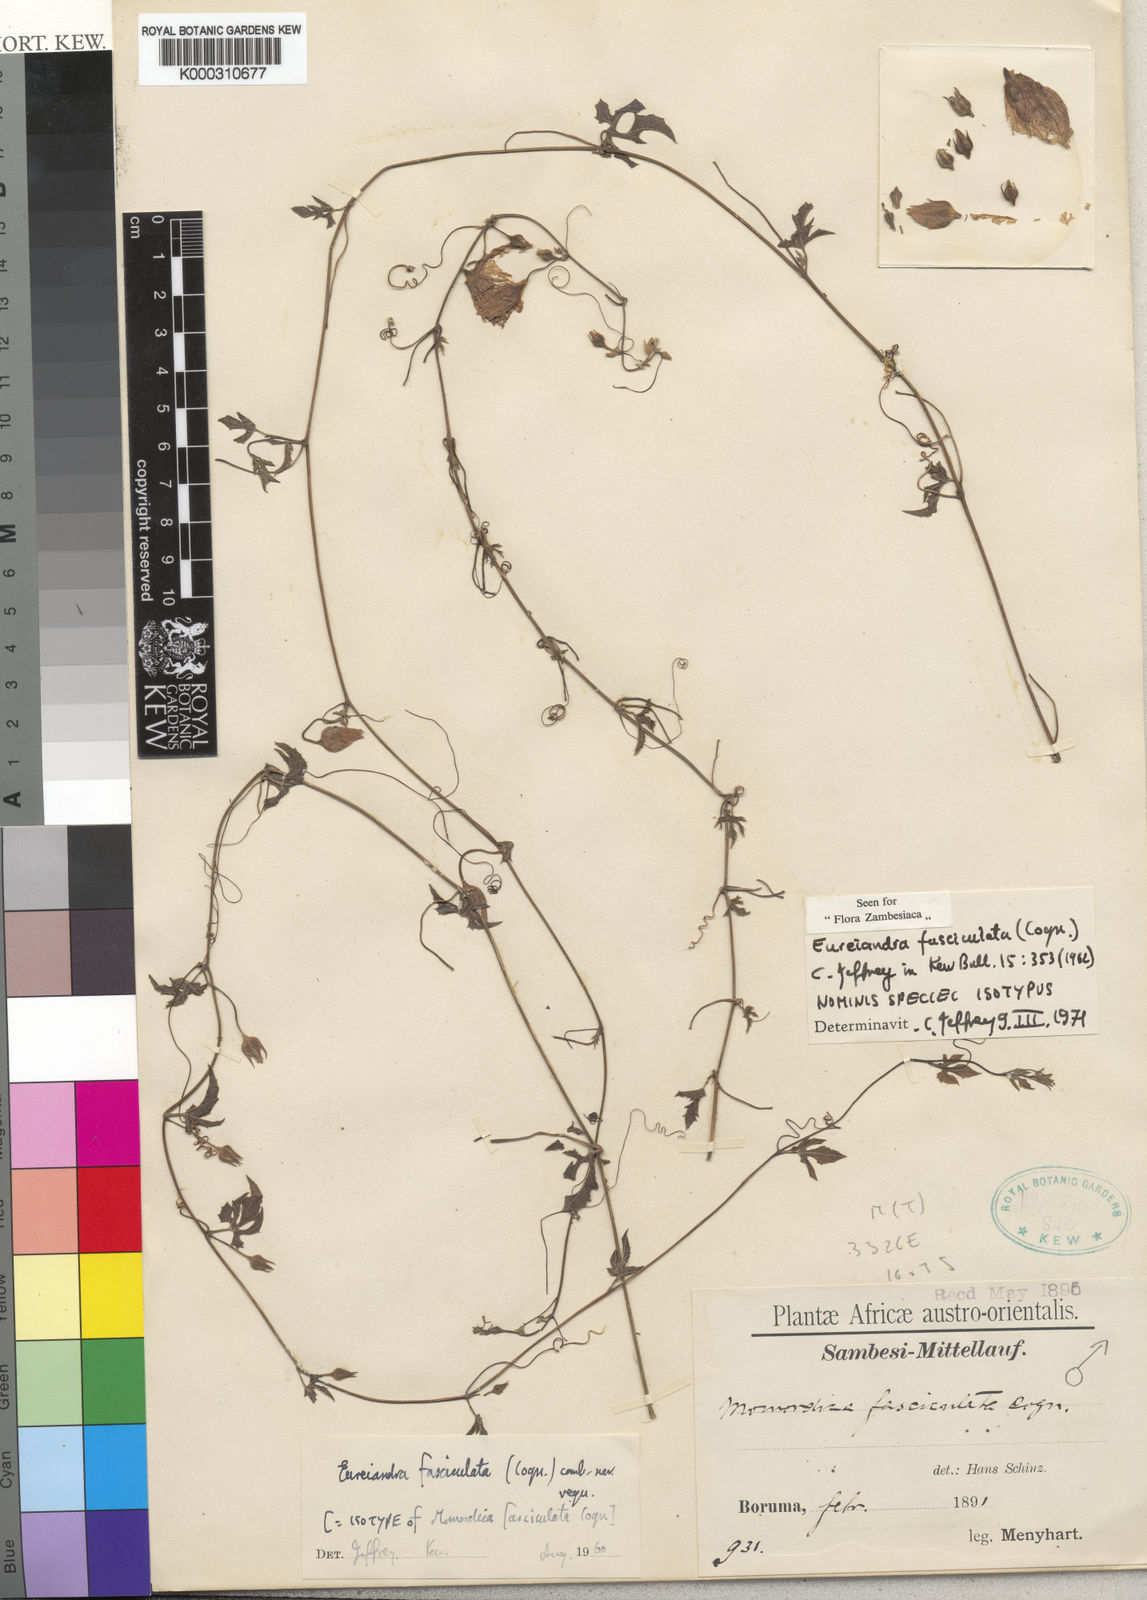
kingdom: Plantae
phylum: Tracheophyta
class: Magnoliopsida
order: Cucurbitales
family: Cucurbitaceae
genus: Eureiandra
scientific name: Eureiandra fasciculata
